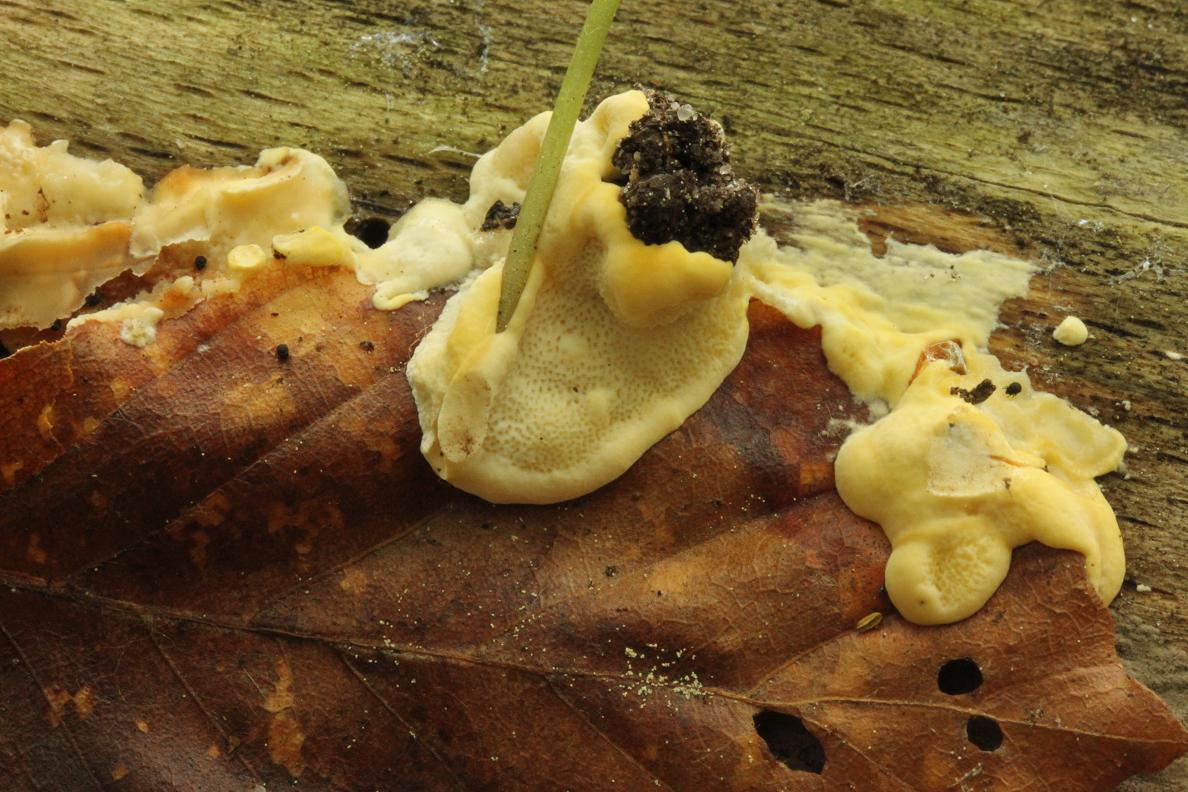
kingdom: Fungi
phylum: Basidiomycota
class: Agaricomycetes
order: Polyporales
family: Steccherinaceae
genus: Antrodiella
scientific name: Antrodiella serpula
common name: gulrandet elastikporesvamp
